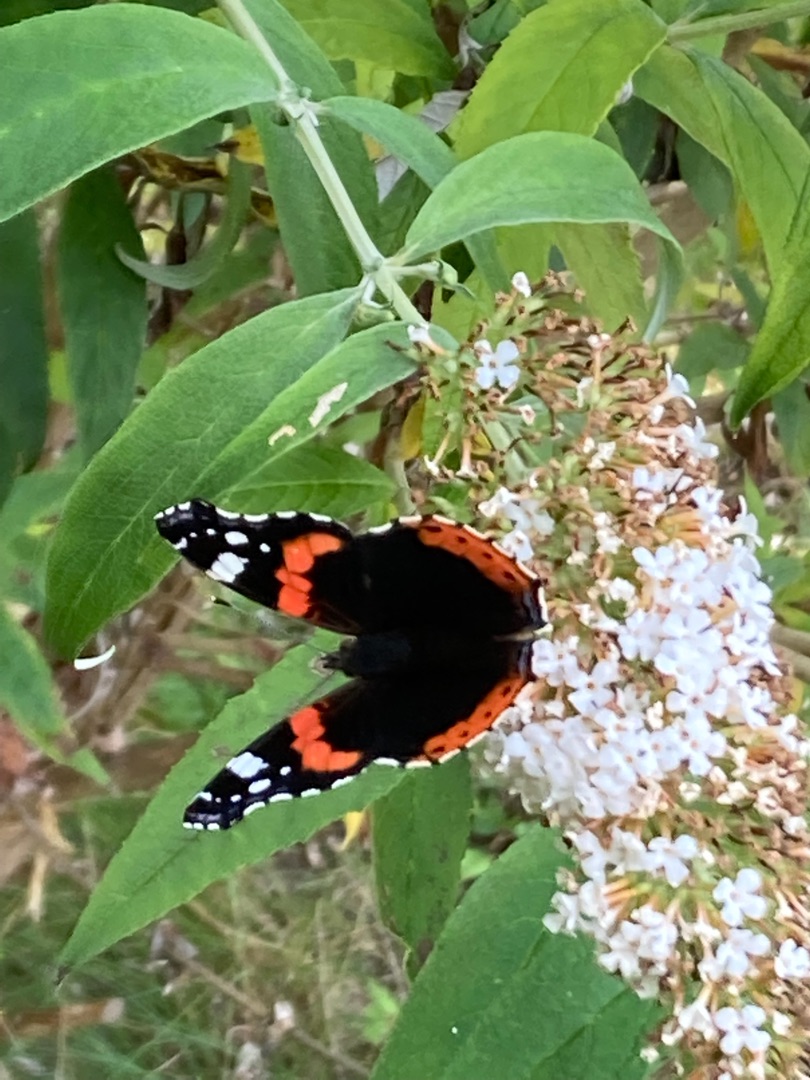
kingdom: Animalia
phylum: Arthropoda
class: Insecta
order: Lepidoptera
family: Nymphalidae
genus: Vanessa
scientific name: Vanessa atalanta
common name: Admiral
